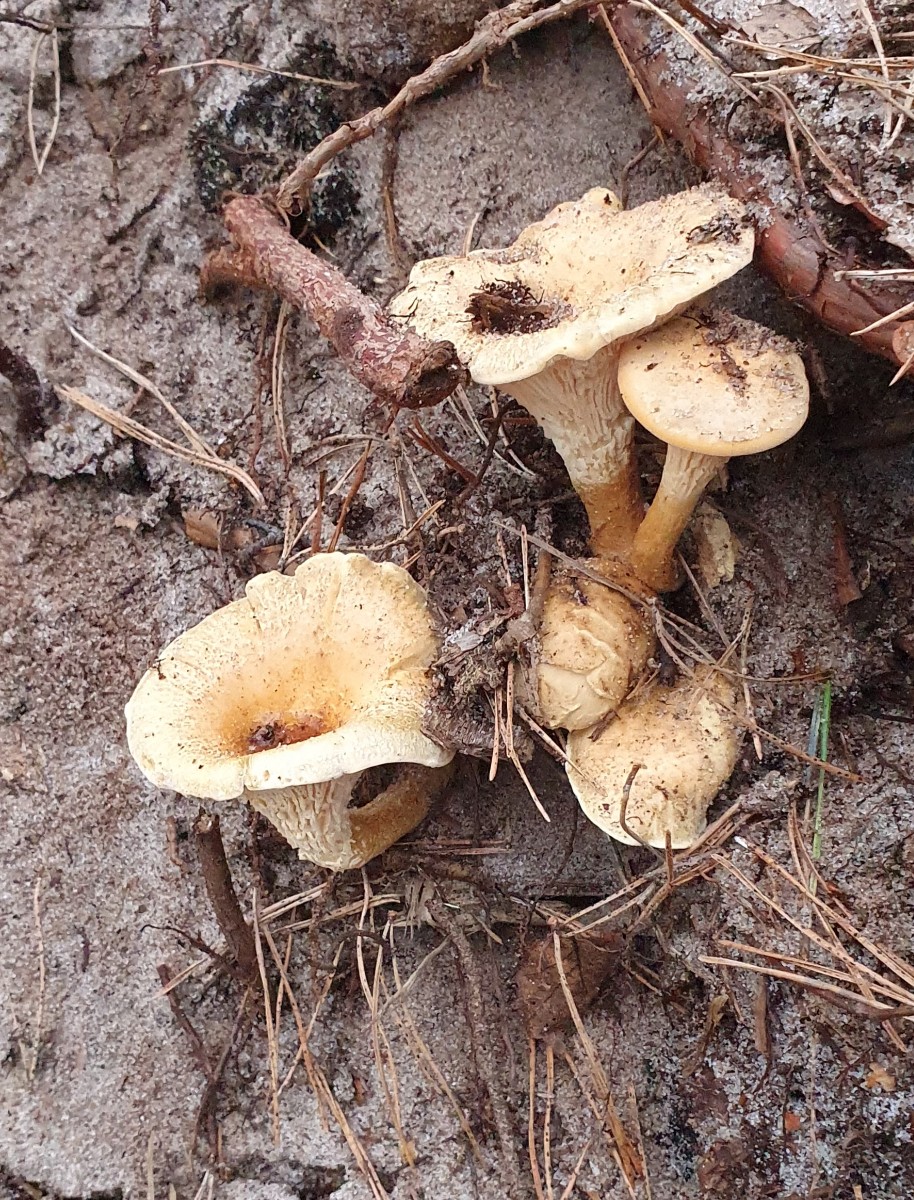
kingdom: Fungi
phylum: Basidiomycota
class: Agaricomycetes
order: Boletales
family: Hygrophoropsidaceae
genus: Hygrophoropsis
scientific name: Hygrophoropsis aurantiaca
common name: almindelig orangekantarel
